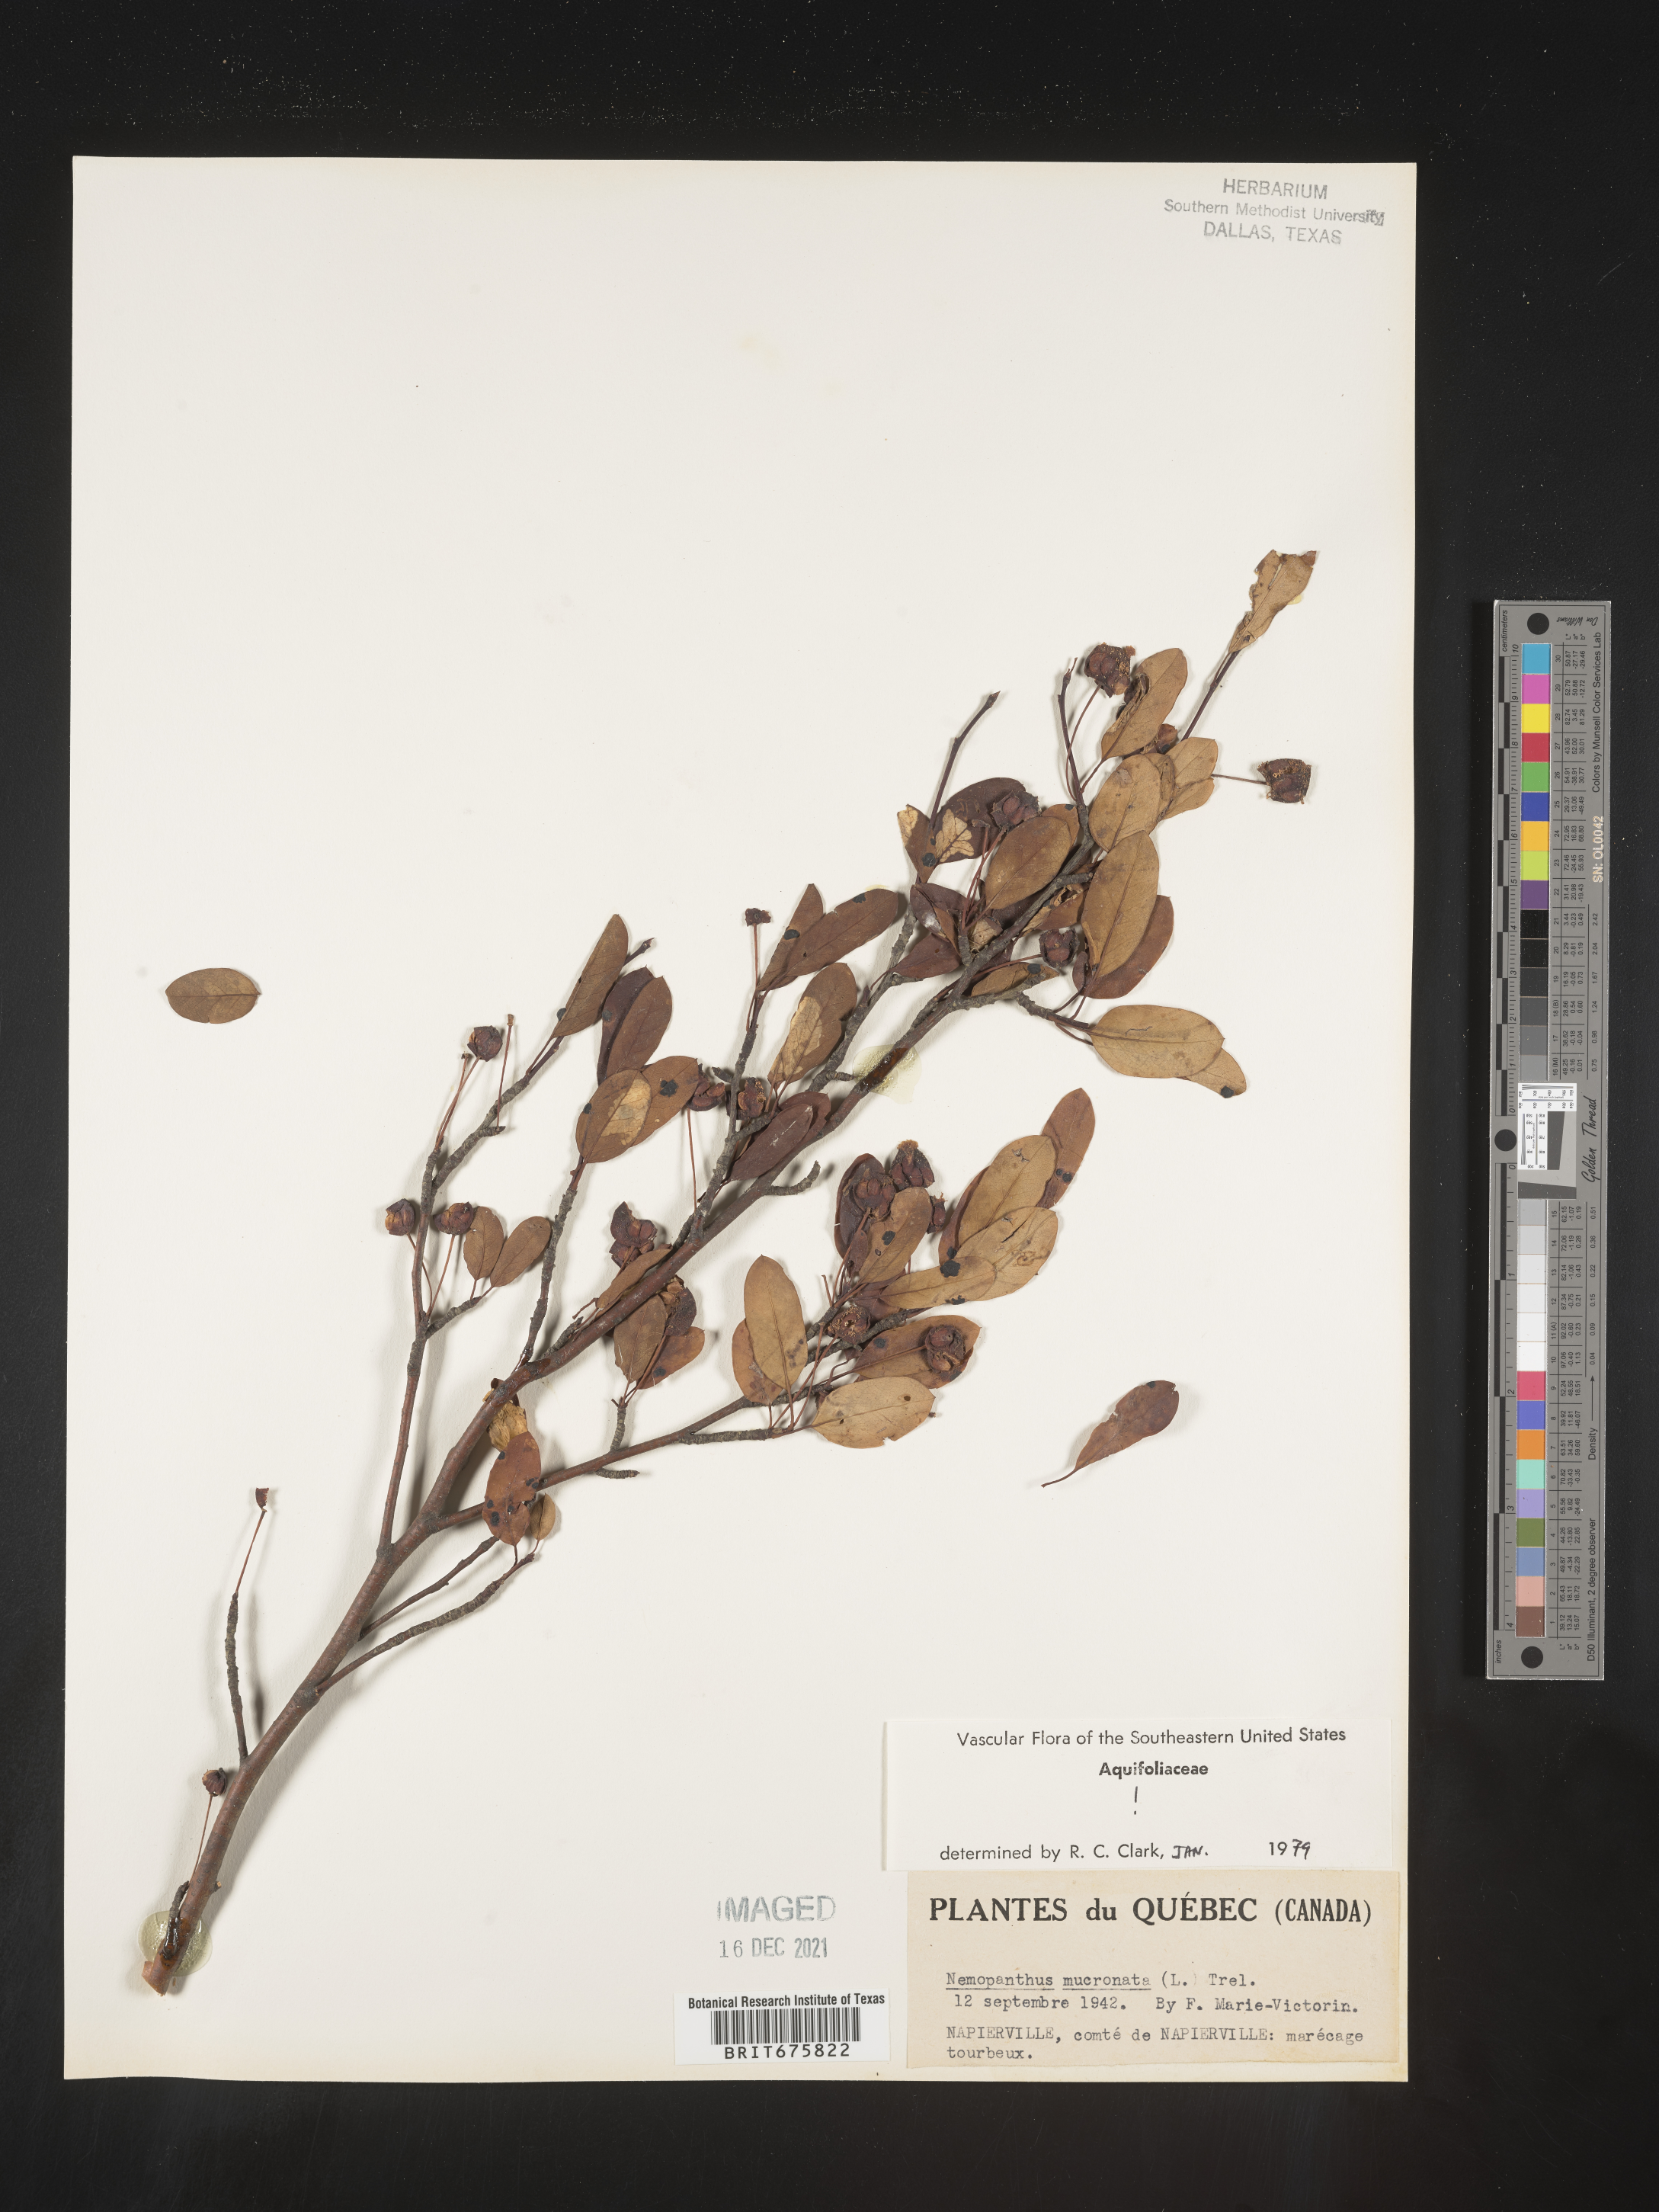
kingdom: Plantae
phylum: Tracheophyta
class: Magnoliopsida
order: Aquifoliales
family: Aquifoliaceae
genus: Ilex
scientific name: Ilex mucronata
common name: Catberry
